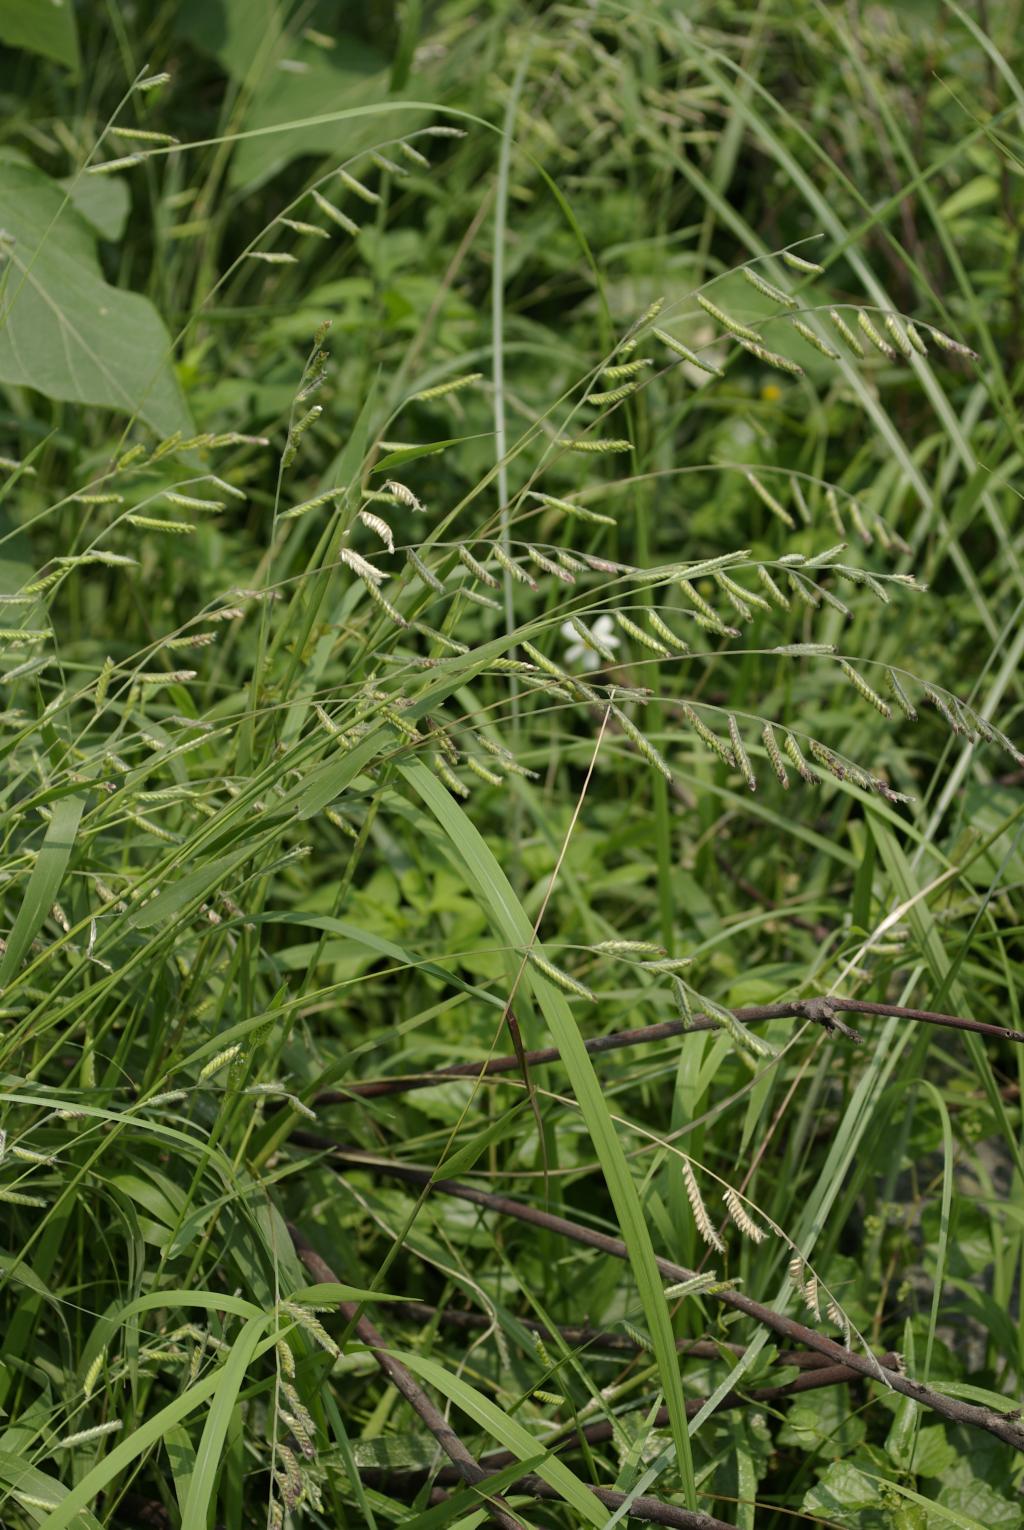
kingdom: Plantae
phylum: Tracheophyta
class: Liliopsida
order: Poales
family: Poaceae
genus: Eriochloa
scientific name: Eriochloa villosa
